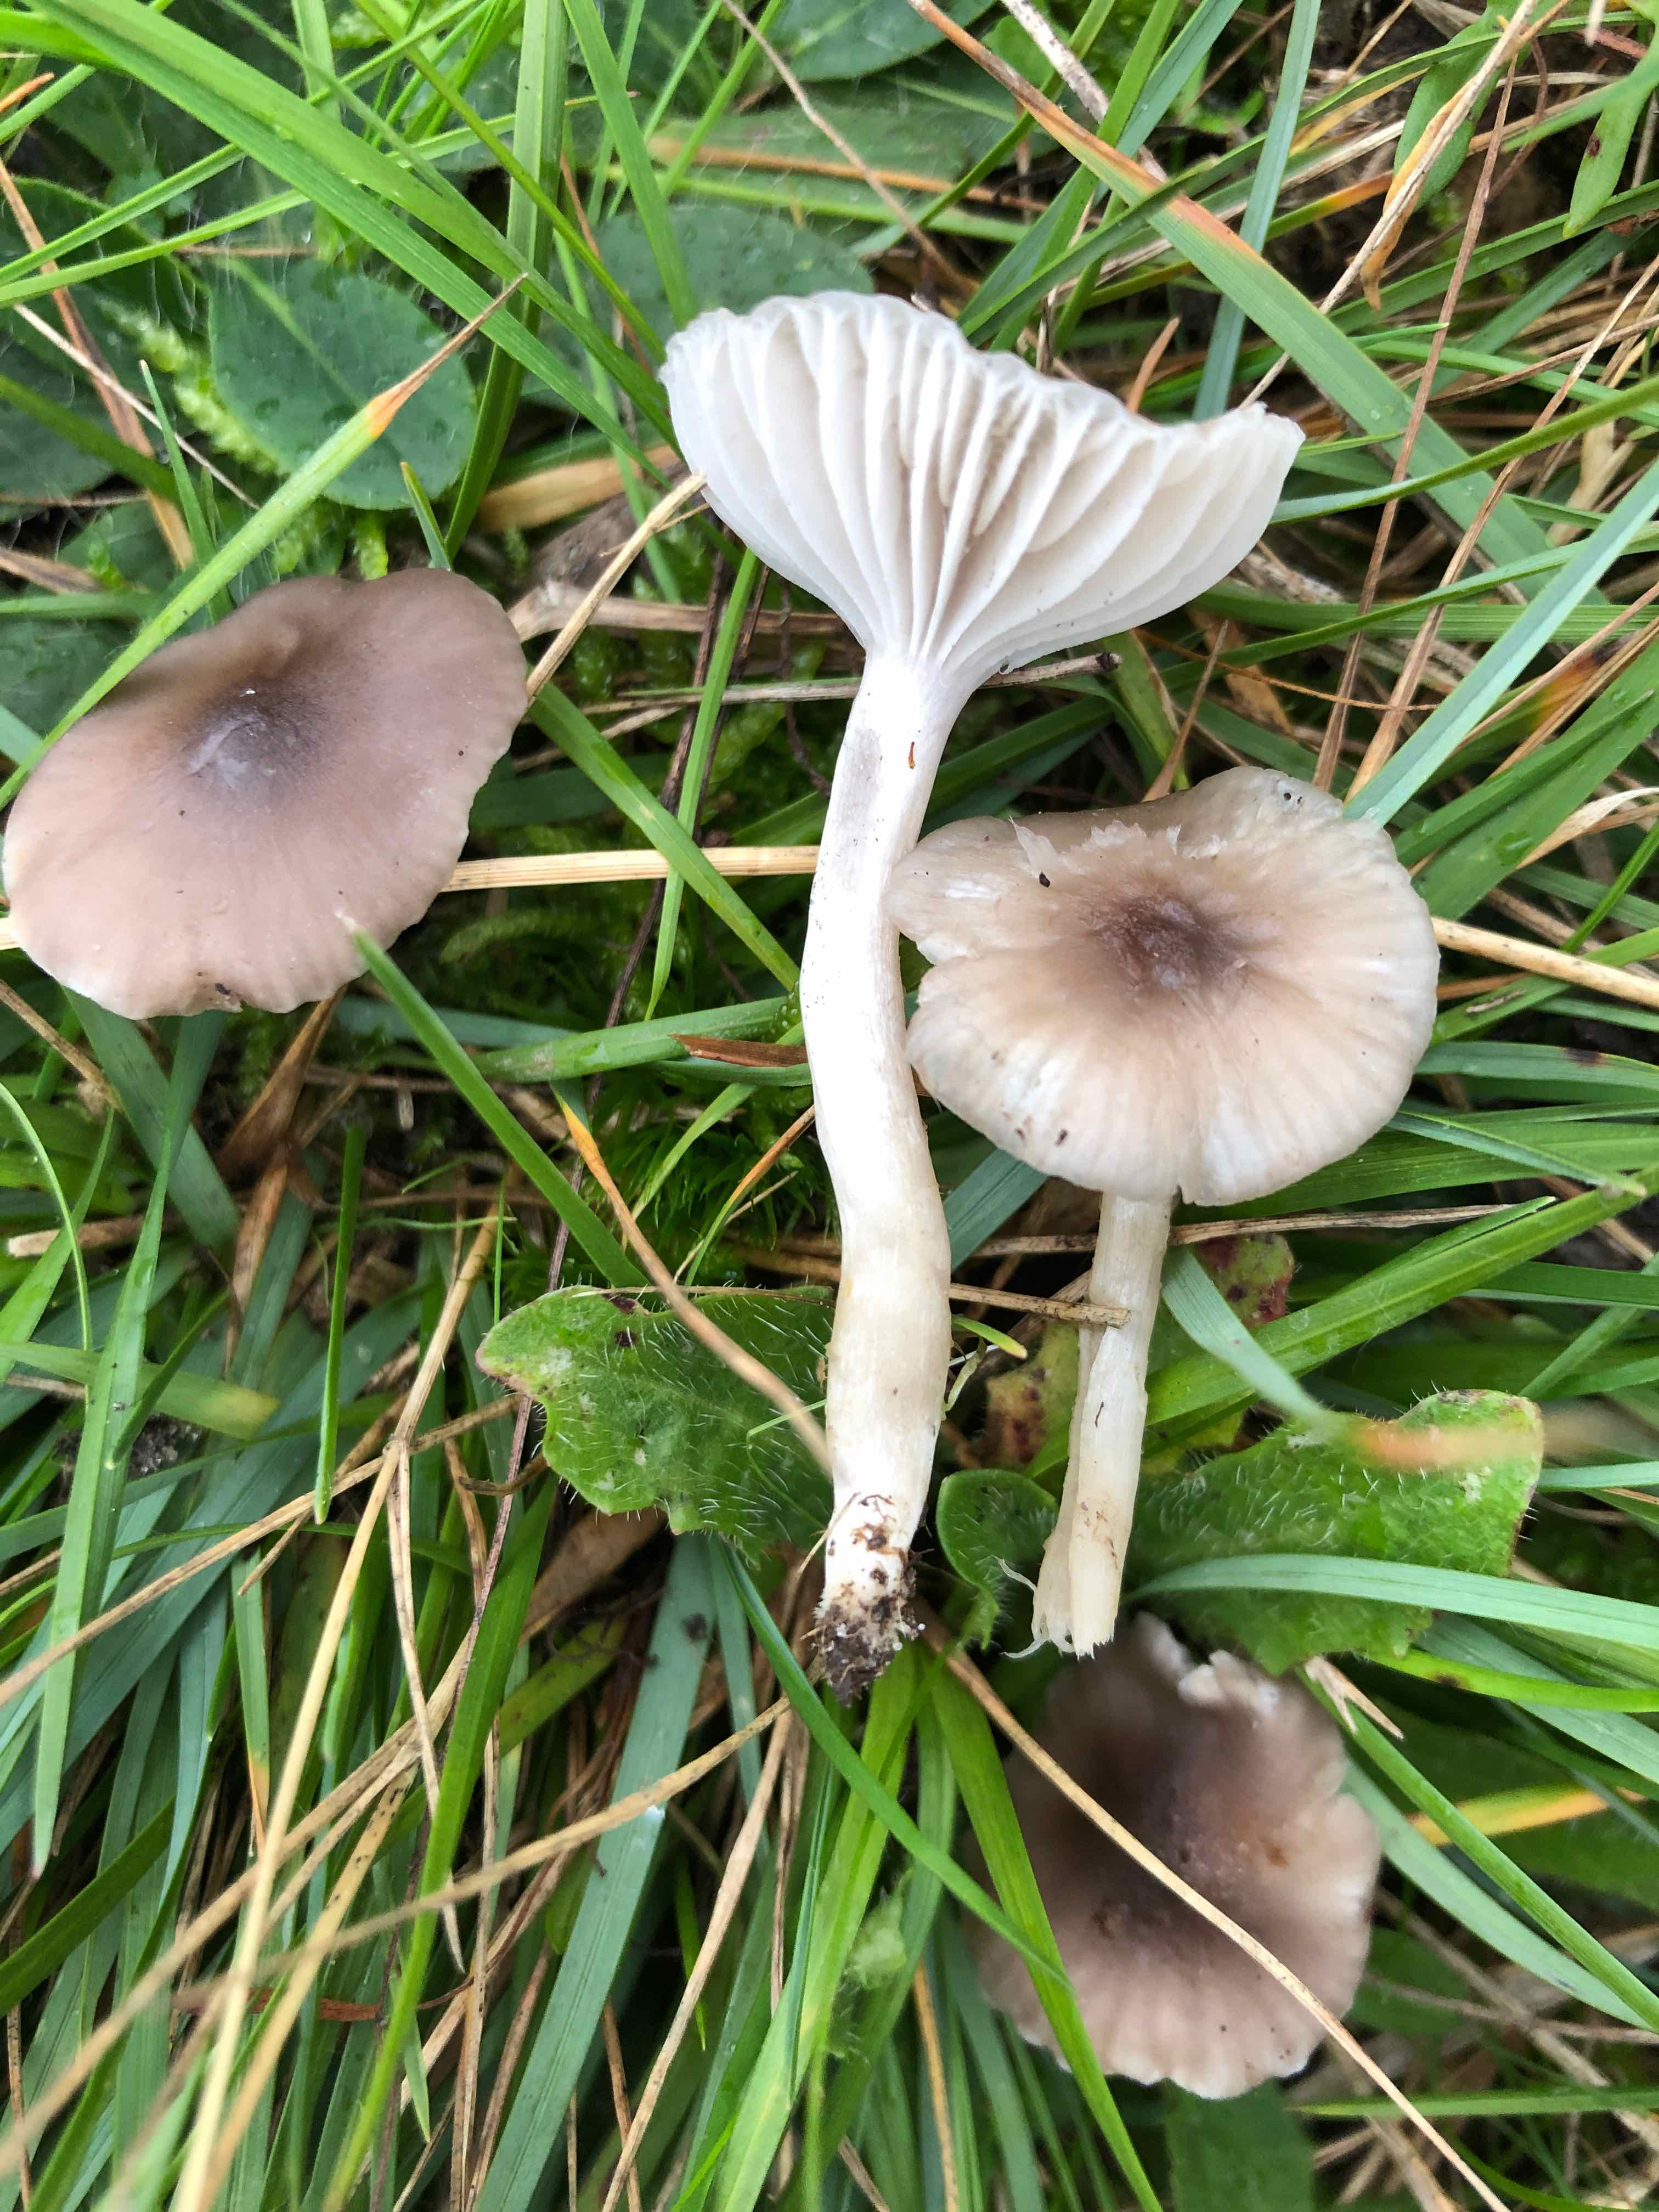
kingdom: Fungi
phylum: Basidiomycota
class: Agaricomycetes
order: Agaricales
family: Hygrophoraceae
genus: Cuphophyllus
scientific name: Cuphophyllus roseascens
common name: rosatonet vokshat
